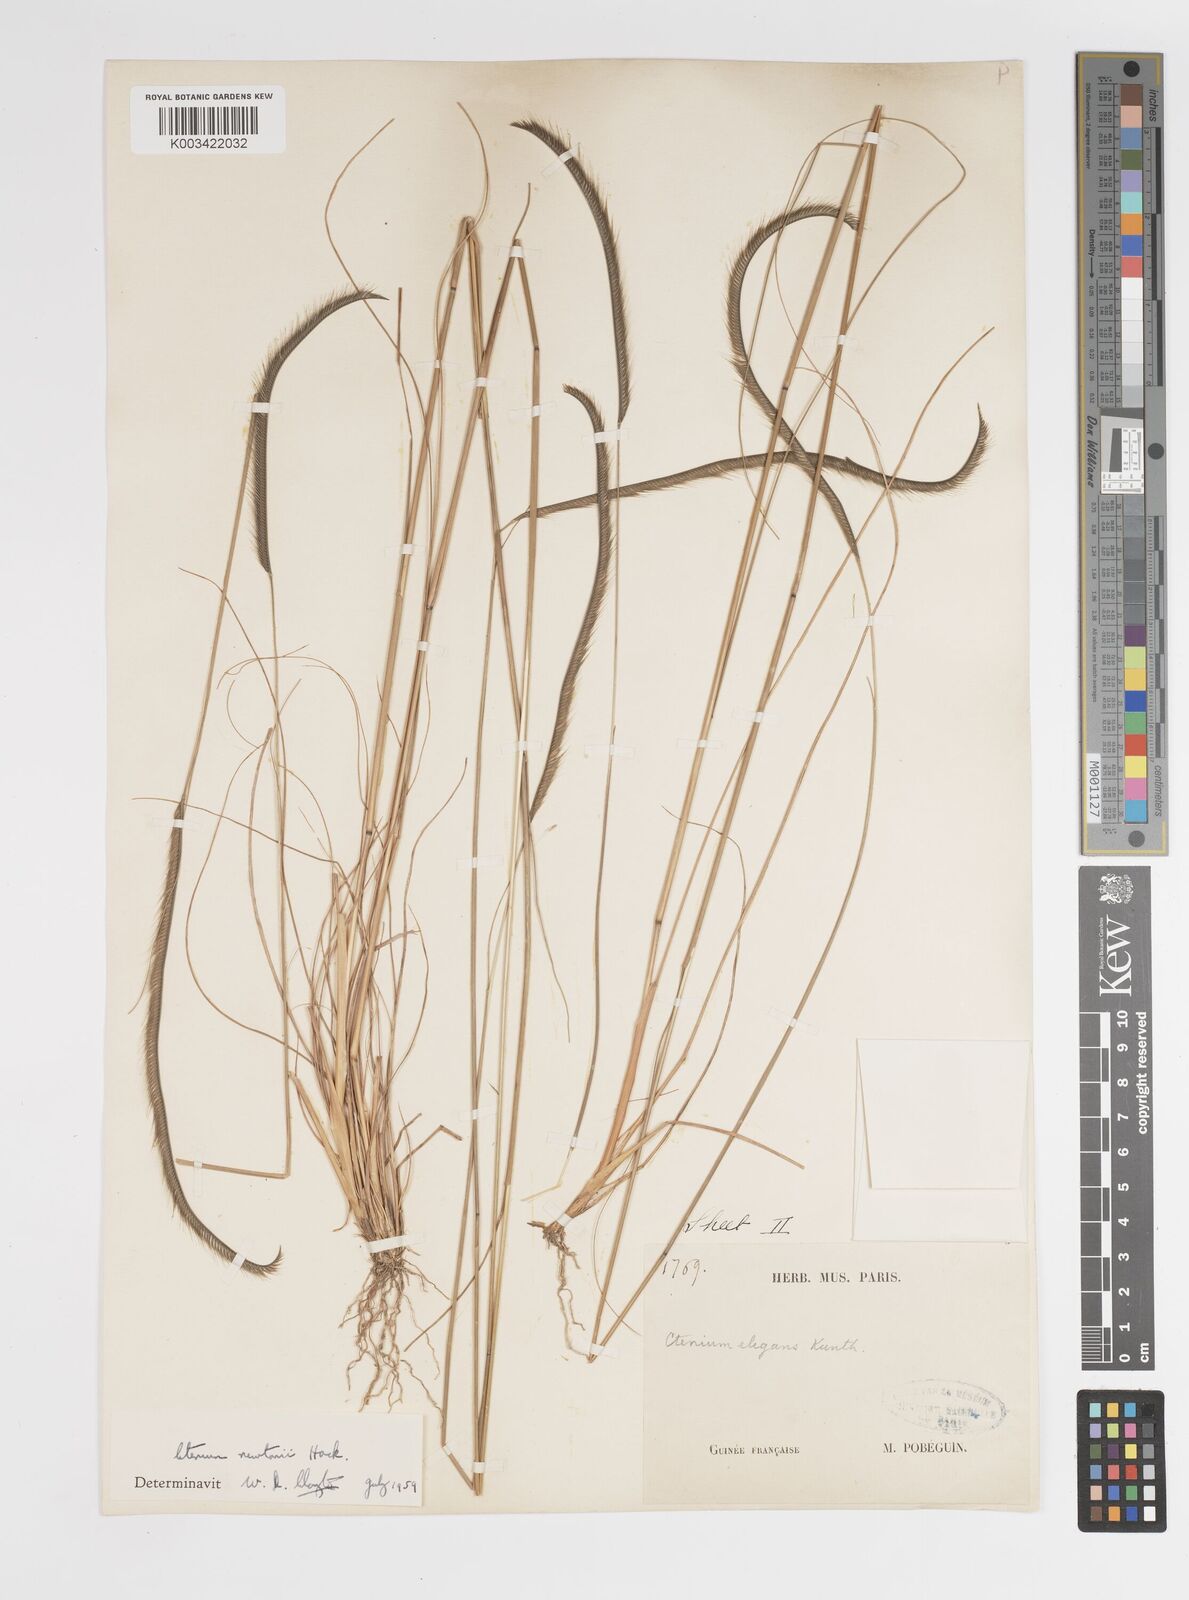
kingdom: Plantae
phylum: Tracheophyta
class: Liliopsida
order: Poales
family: Poaceae
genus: Ctenium
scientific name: Ctenium newtonii
